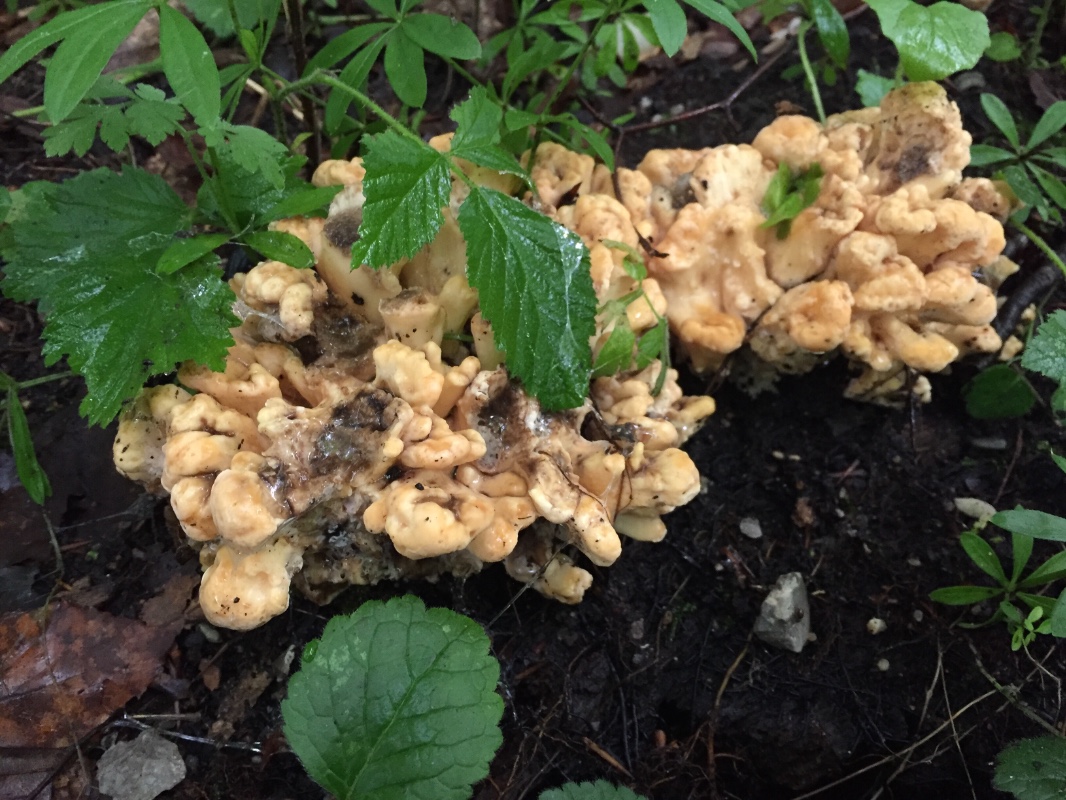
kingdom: Fungi
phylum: Basidiomycota
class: Agaricomycetes
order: Polyporales
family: Meripilaceae
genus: Meripilus
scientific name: Meripilus giganteus
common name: kæmpeporesvamp
